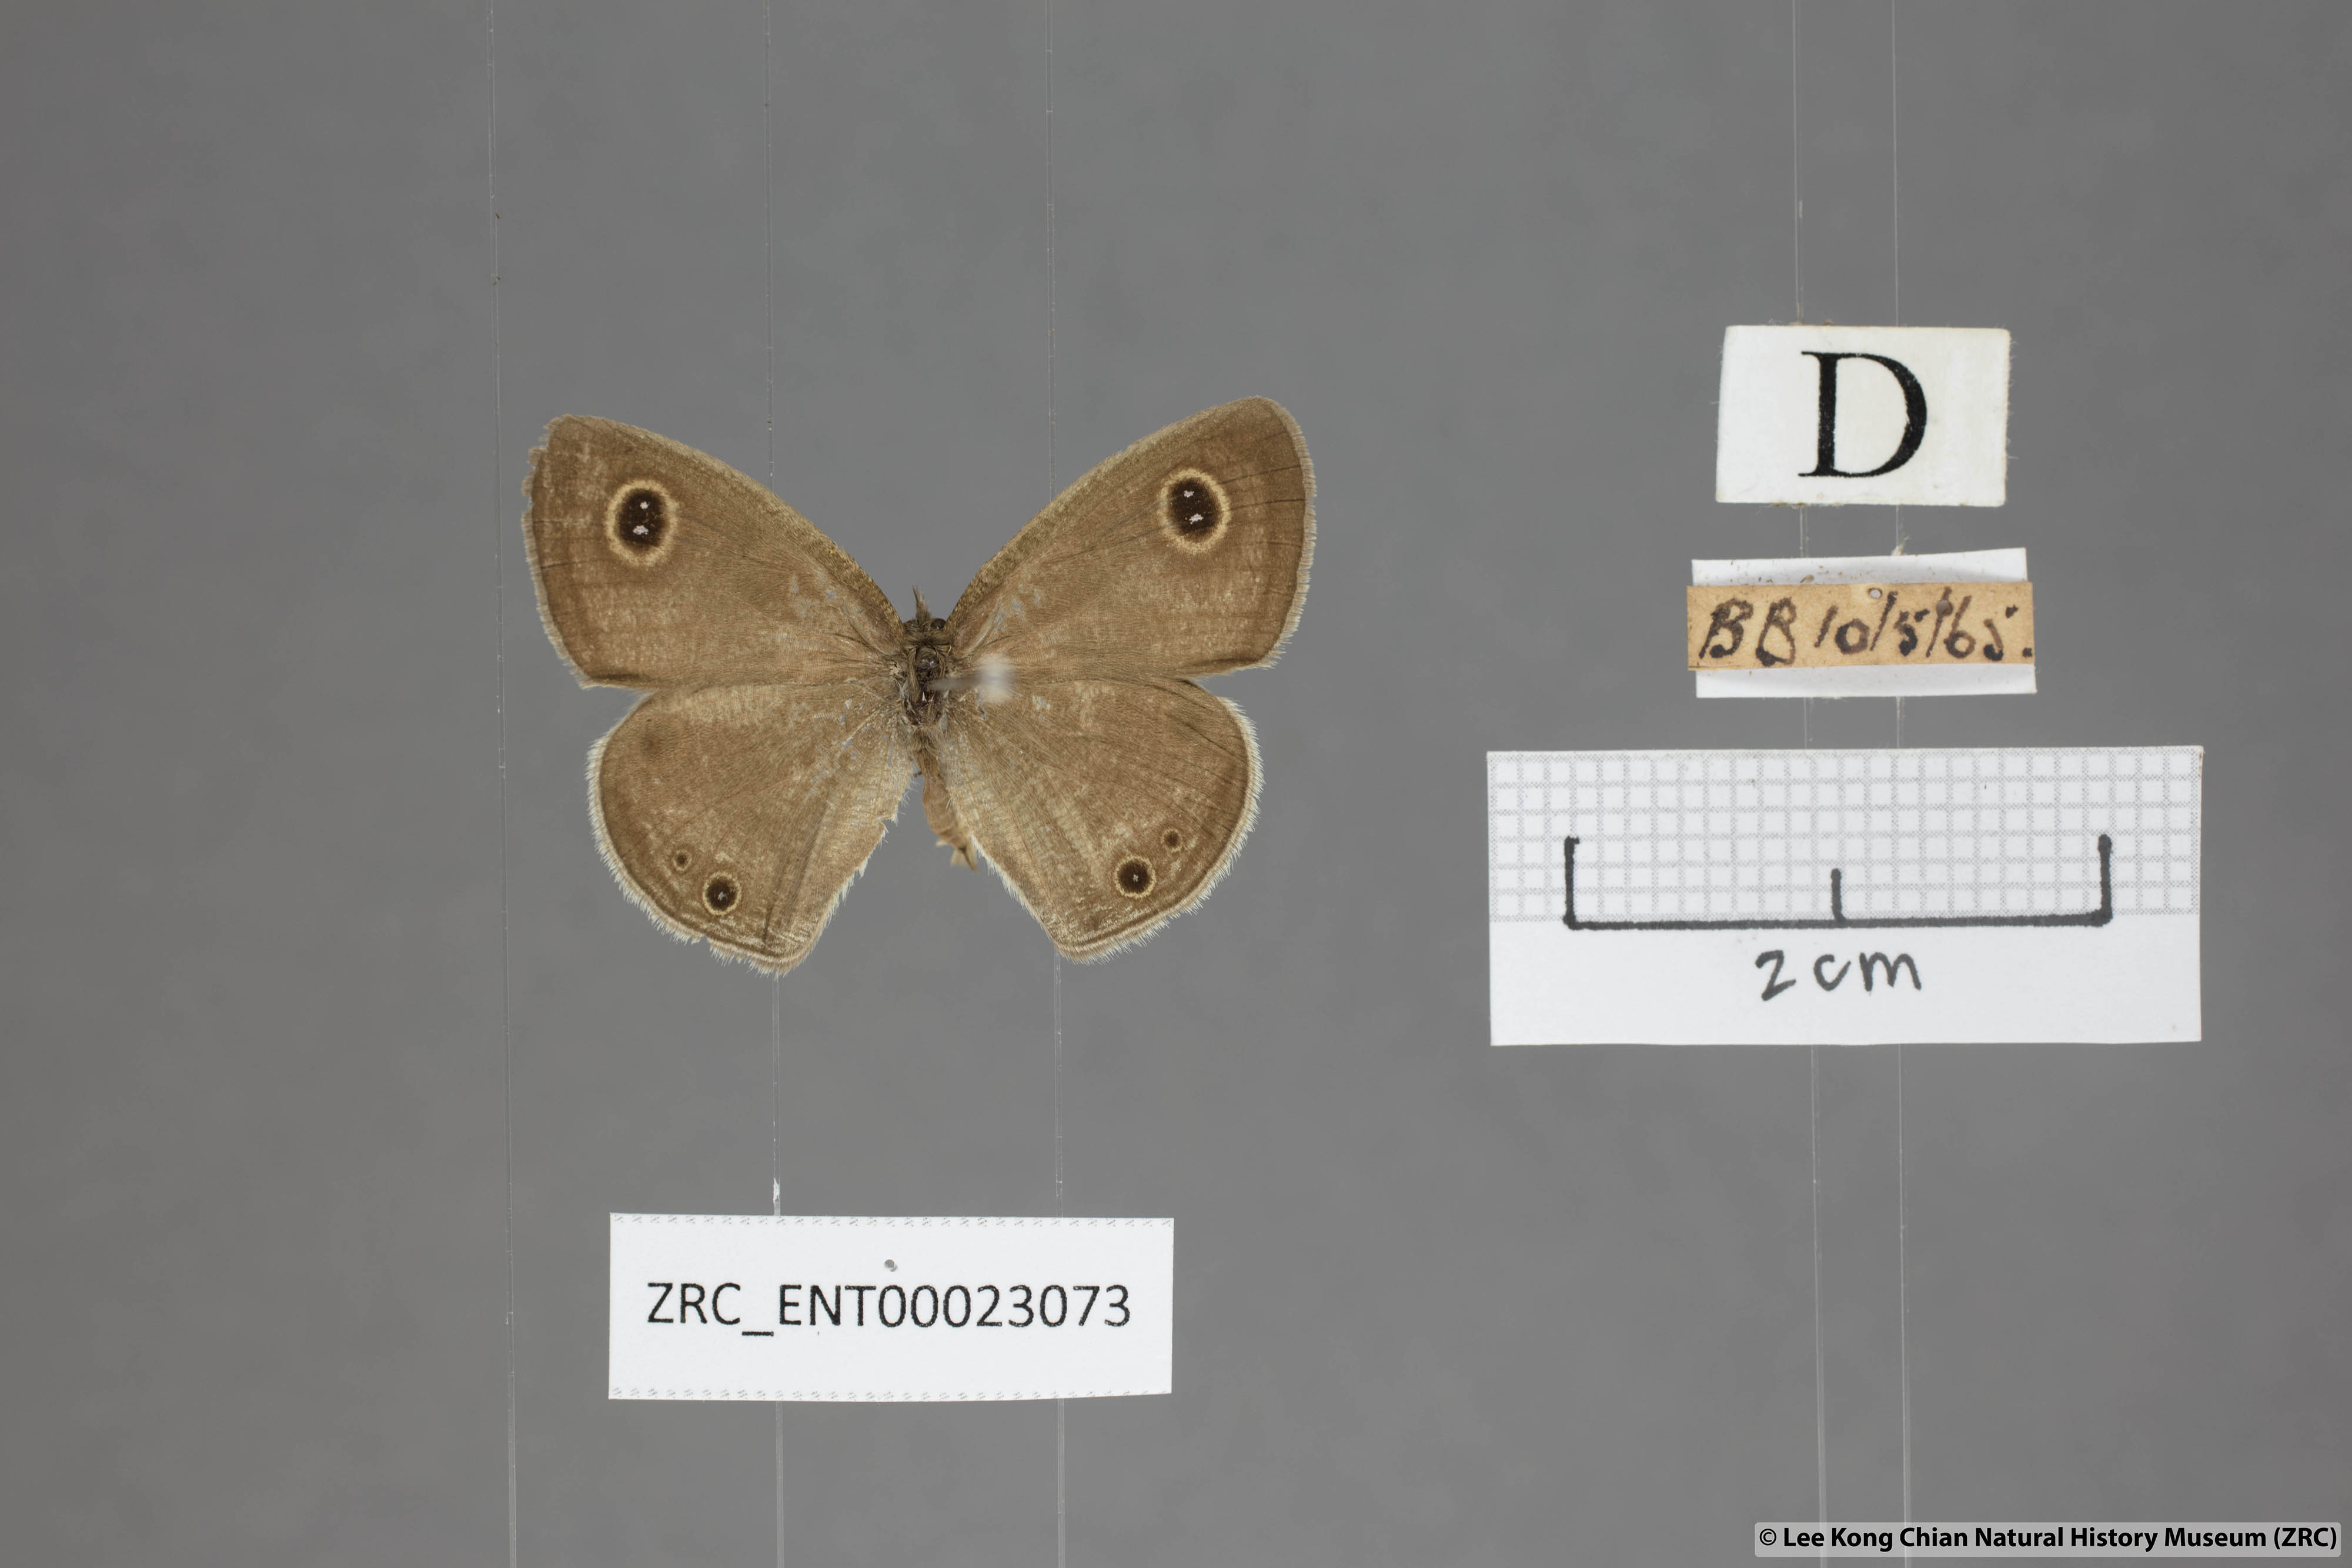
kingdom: Animalia
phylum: Arthropoda
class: Insecta
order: Lepidoptera
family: Nymphalidae
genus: Ypthima
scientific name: Ypthima huebneri
